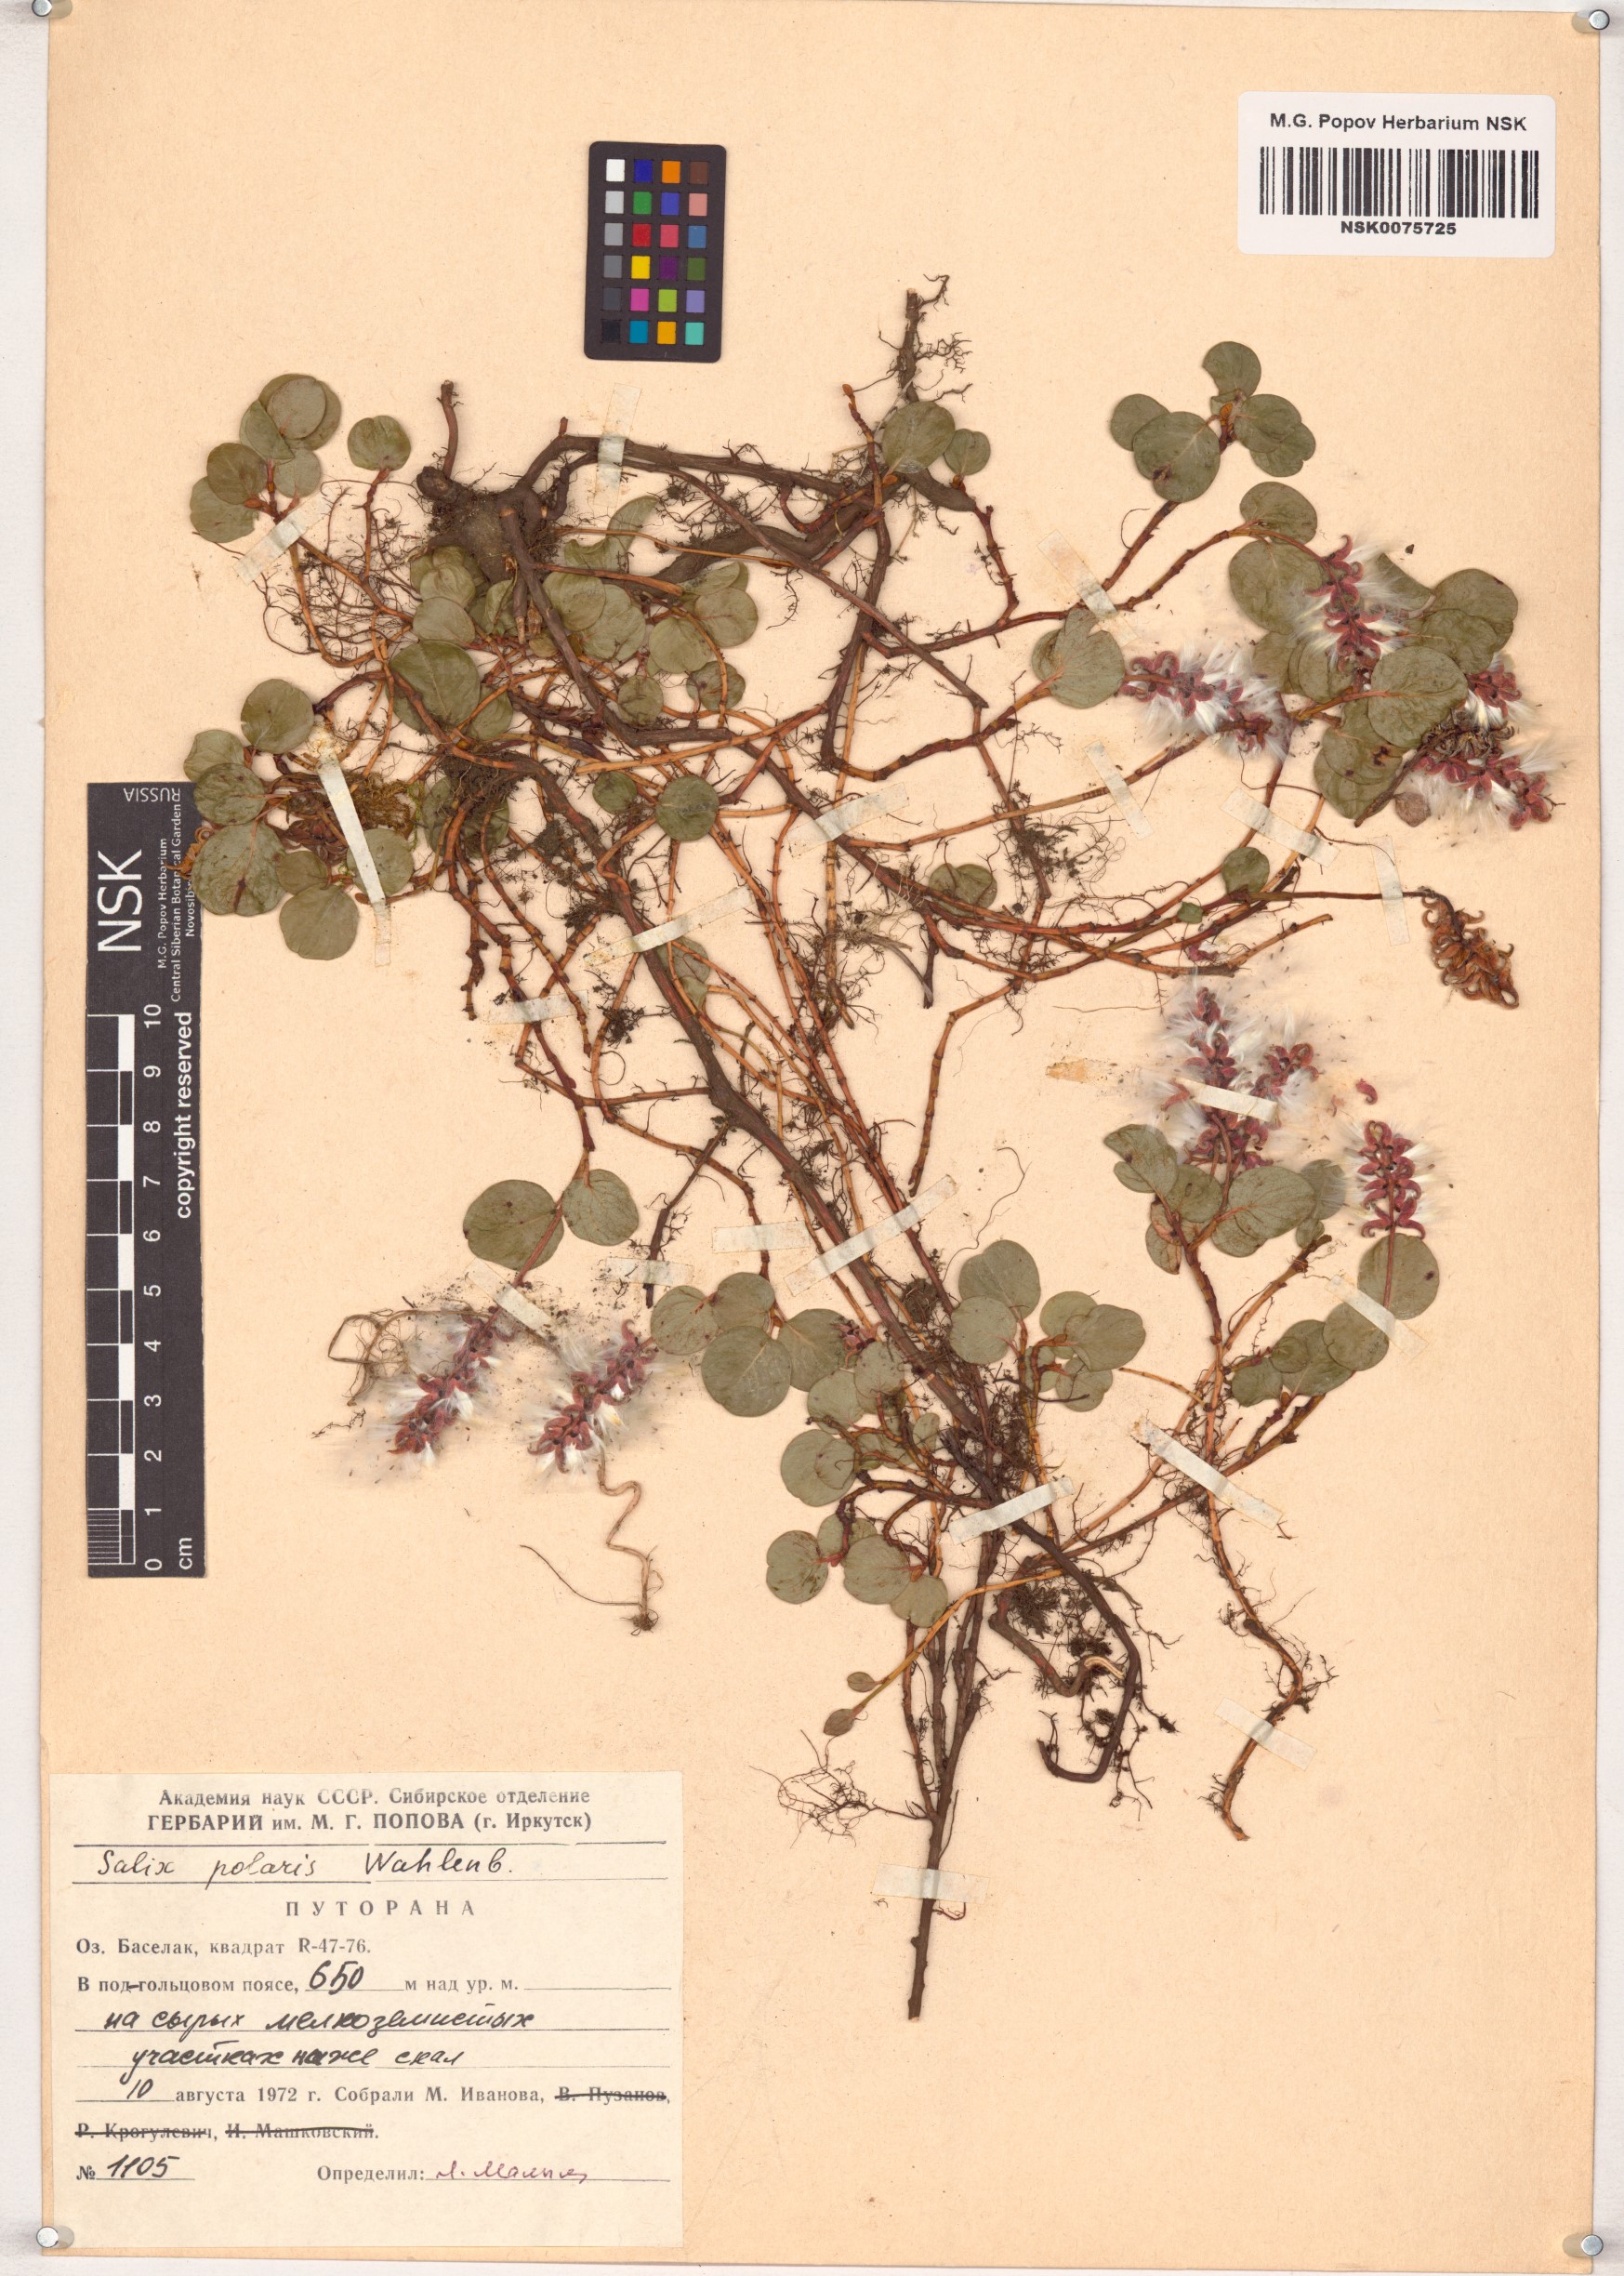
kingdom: Plantae
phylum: Tracheophyta
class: Magnoliopsida
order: Malpighiales
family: Salicaceae
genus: Salix
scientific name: Salix polaris
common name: Polar willow
